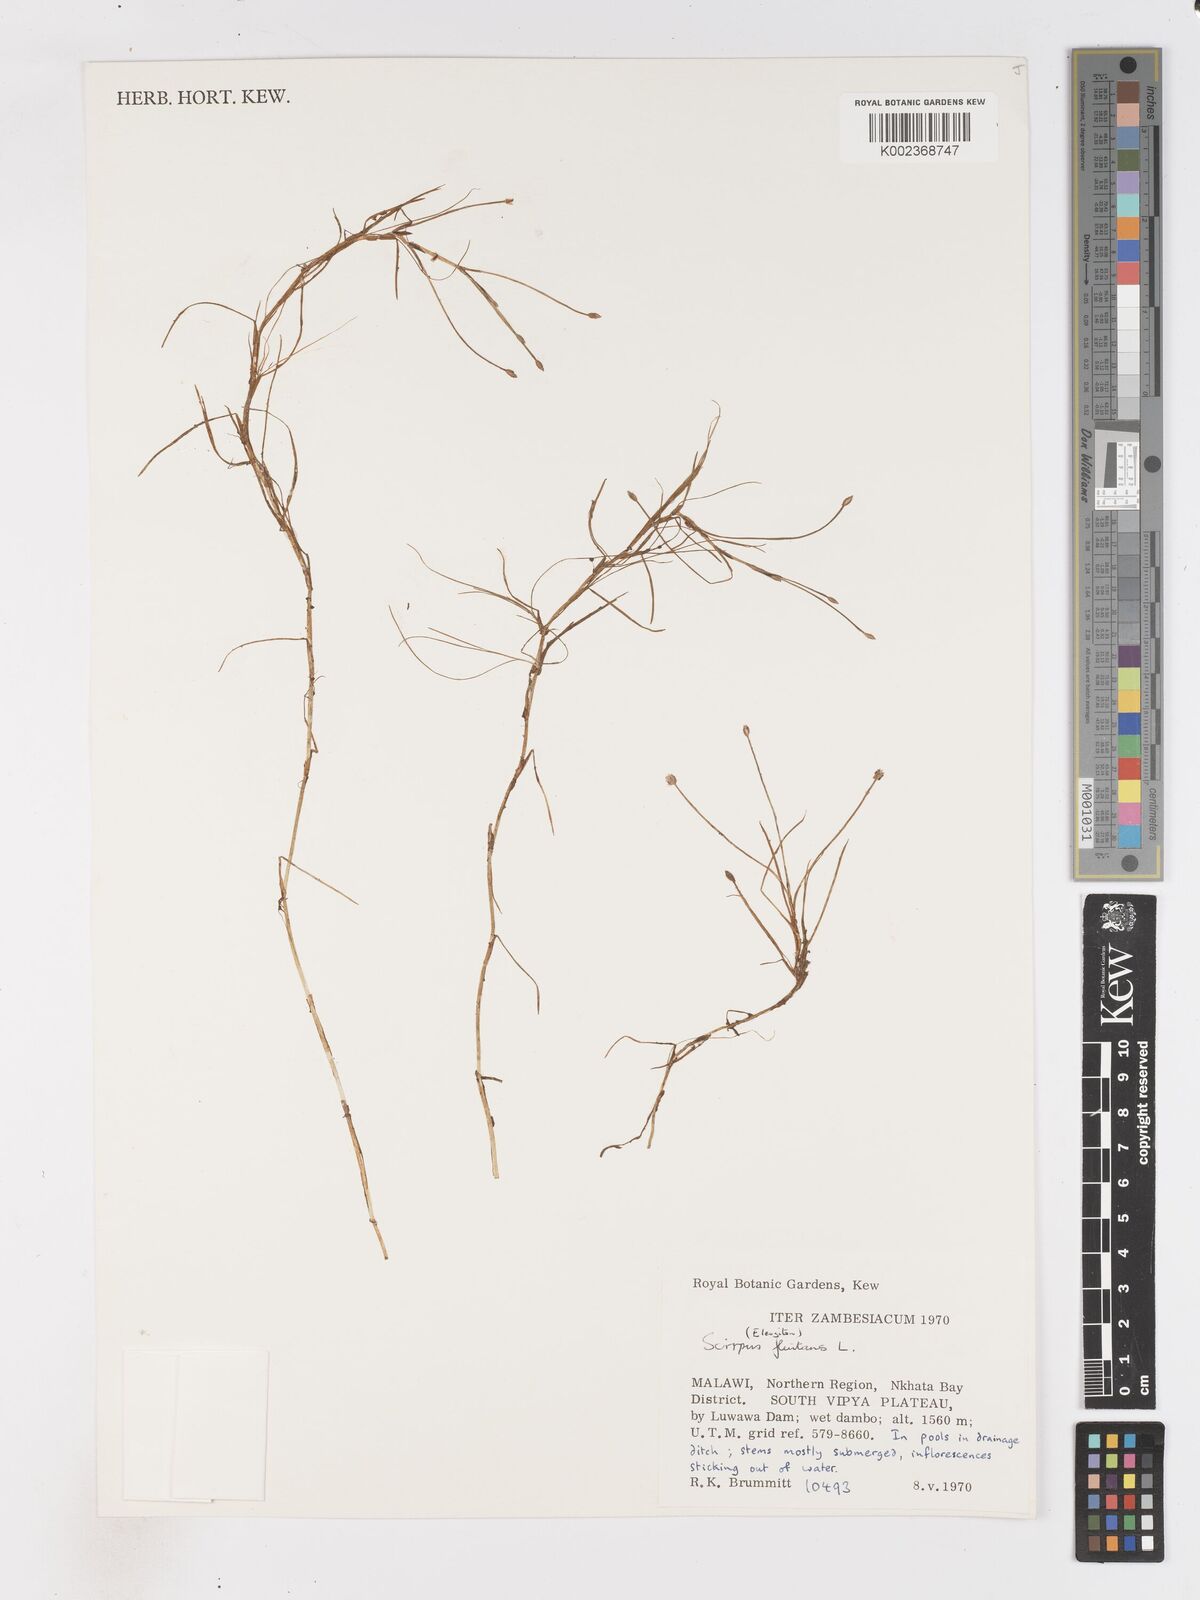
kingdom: Plantae
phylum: Tracheophyta
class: Liliopsida
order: Poales
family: Cyperaceae
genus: Isolepis
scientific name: Isolepis fluitans
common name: Floating club-rush
